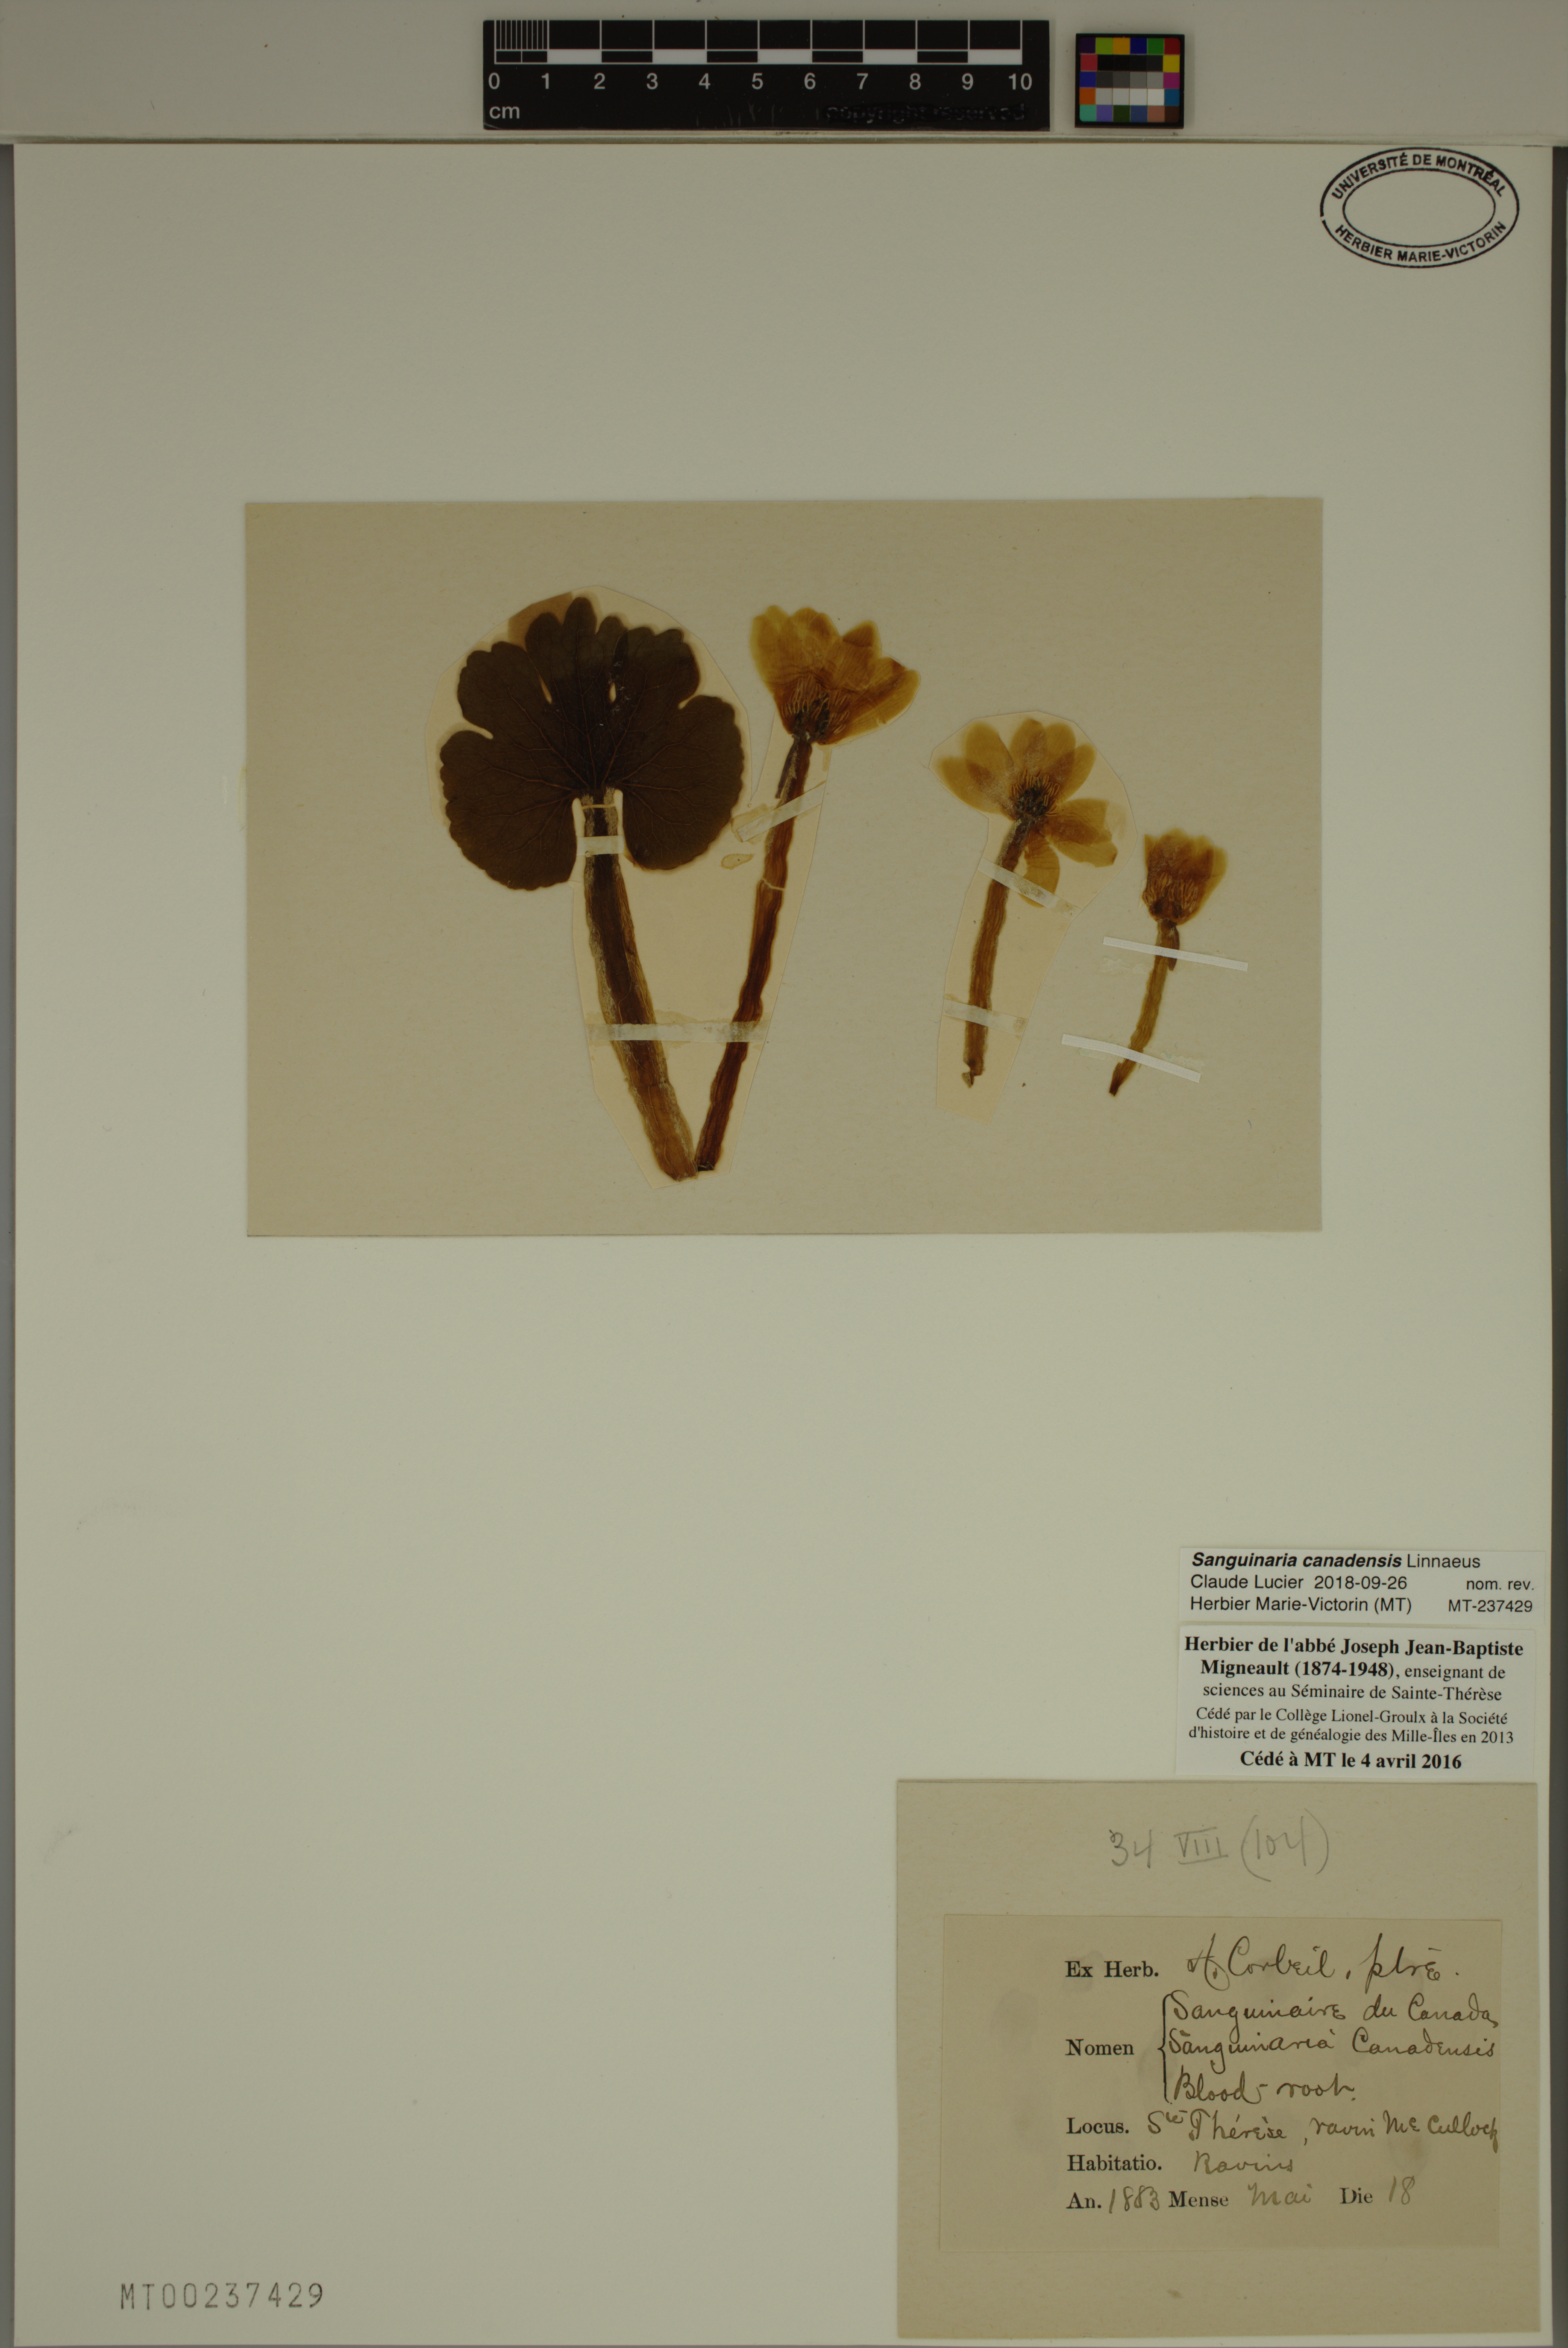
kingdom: Plantae
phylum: Tracheophyta
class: Magnoliopsida
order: Ranunculales
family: Papaveraceae
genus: Sanguinaria
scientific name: Sanguinaria canadensis
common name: Bloodroot
